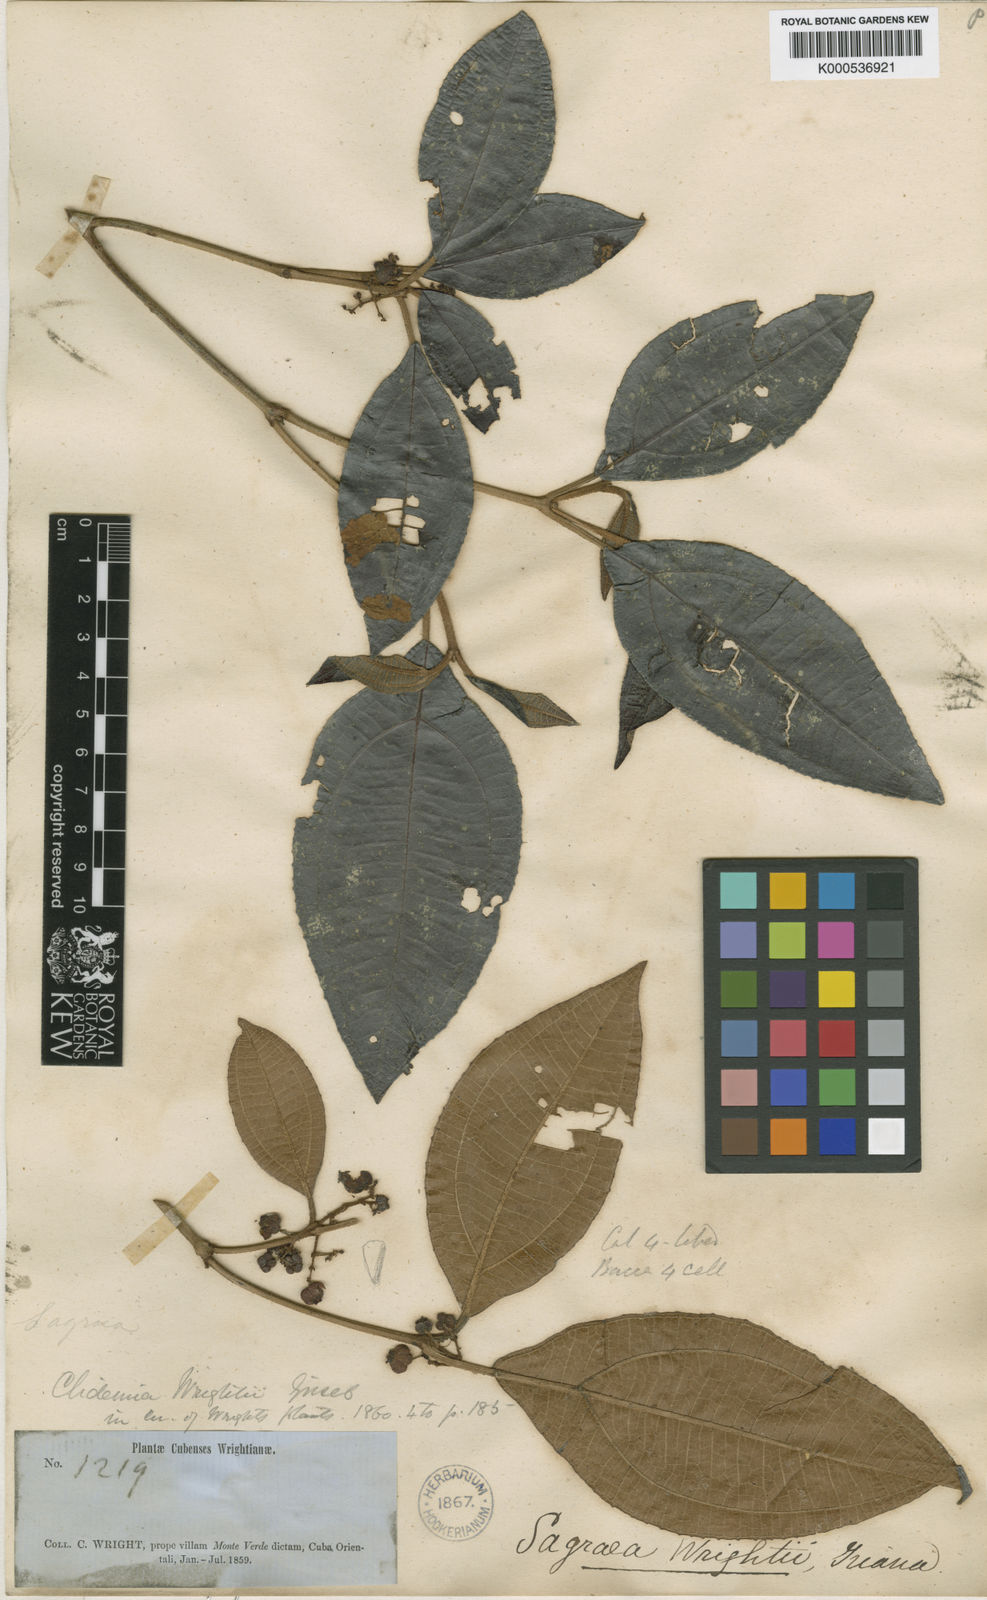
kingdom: Plantae
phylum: Tracheophyta
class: Magnoliopsida
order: Myrtales
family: Melastomataceae
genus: Miconia
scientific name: Miconia charleswrightii
